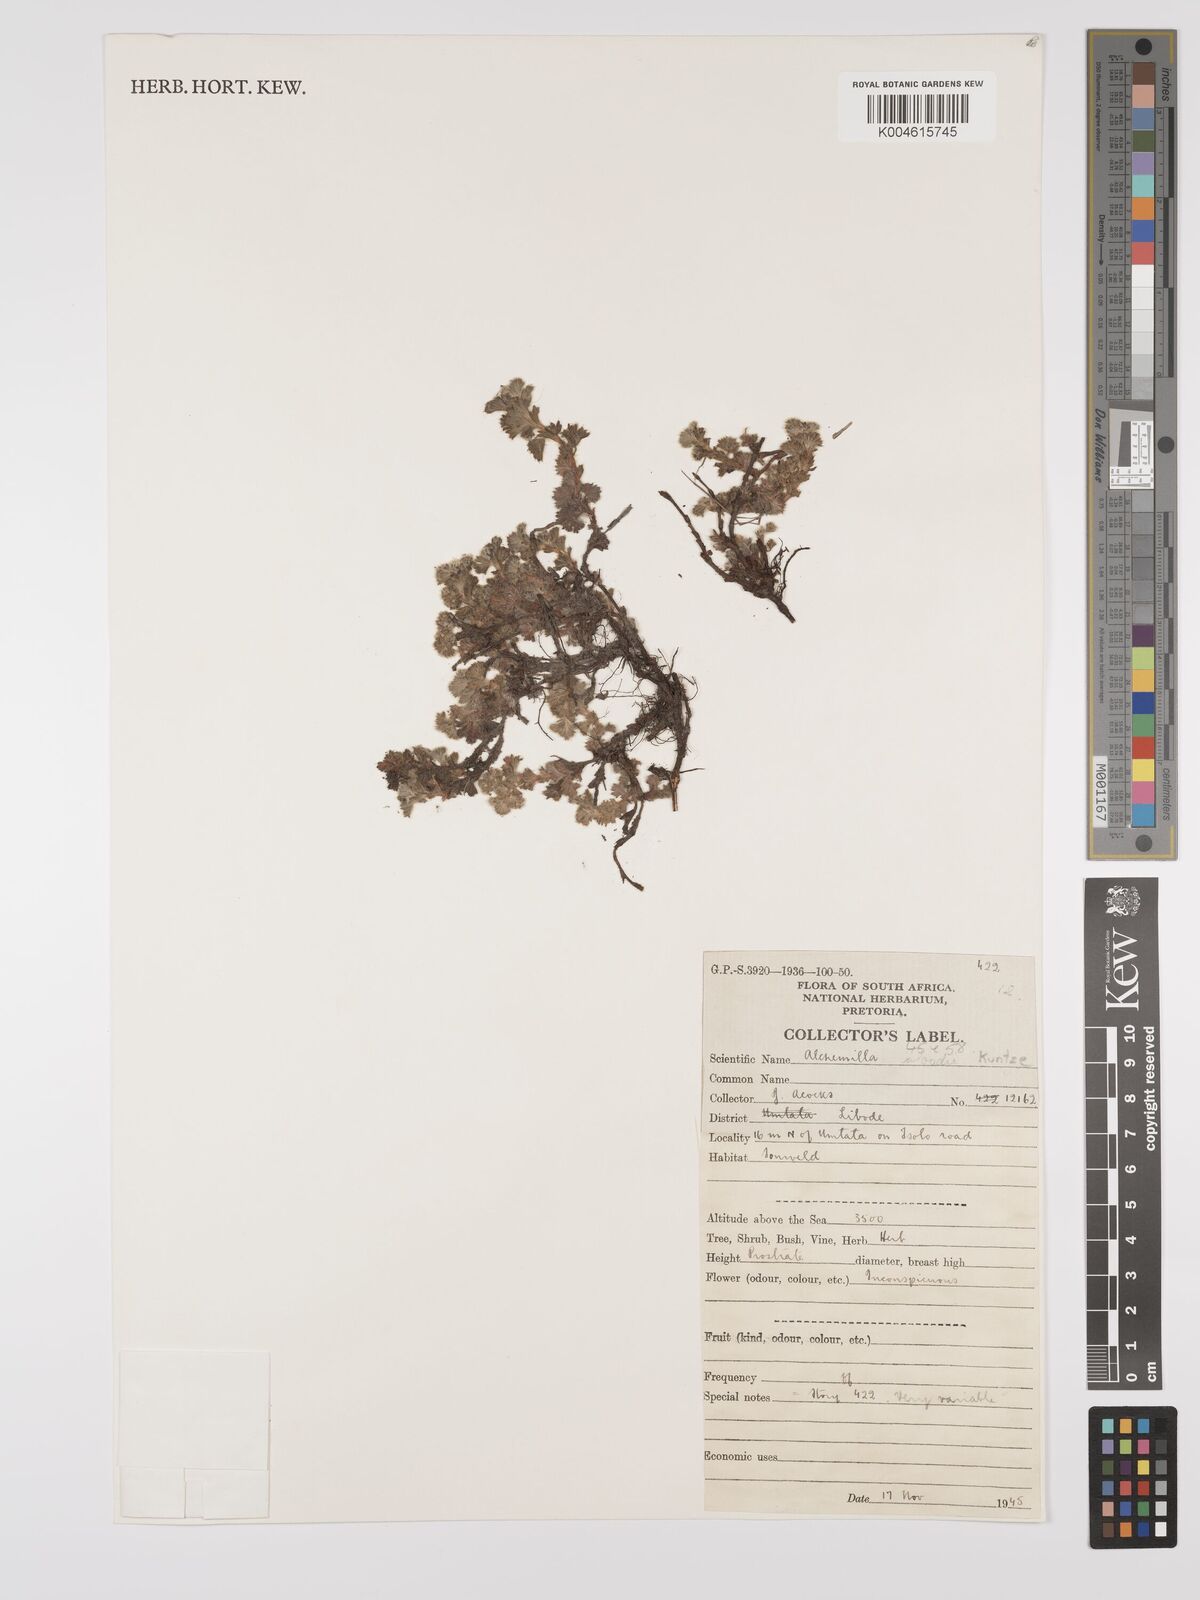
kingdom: Plantae
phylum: Tracheophyta
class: Magnoliopsida
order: Rosales
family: Rosaceae
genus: Alchemilla
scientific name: Alchemilla woodii
